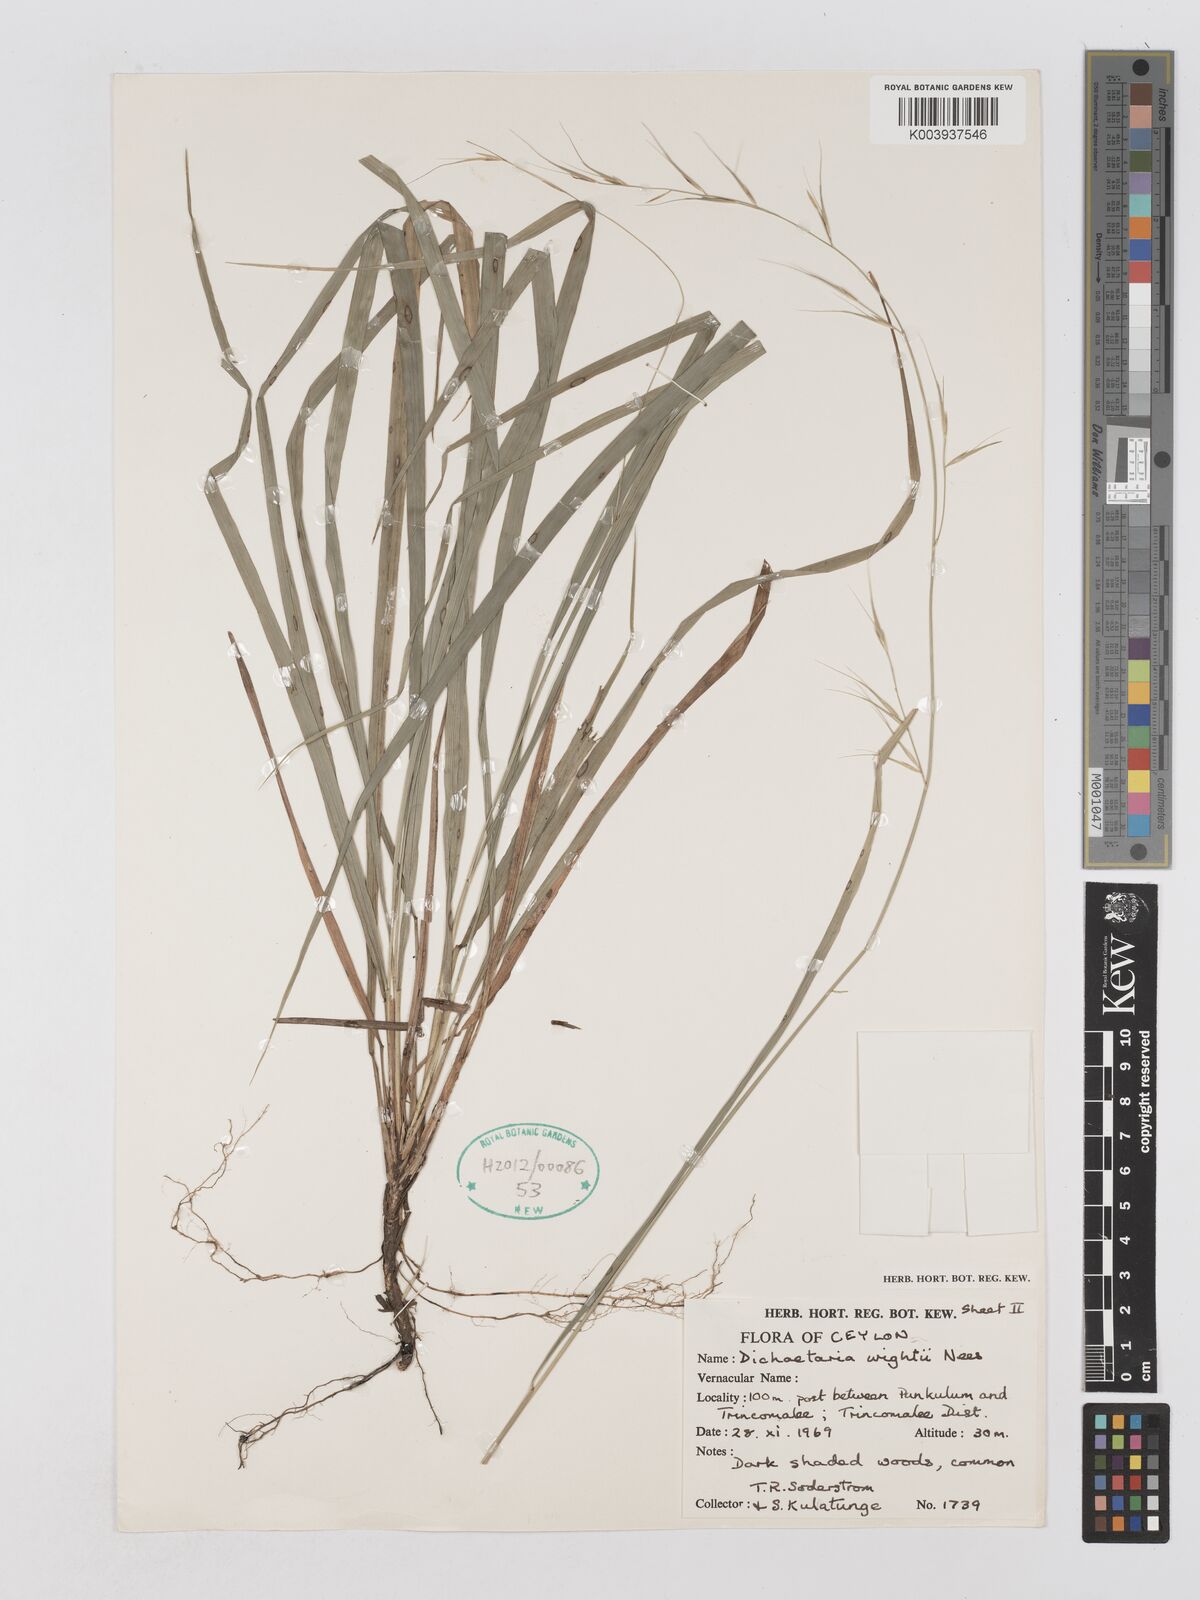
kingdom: Plantae
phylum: Tracheophyta
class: Liliopsida
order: Poales
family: Poaceae
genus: Dichaetaria
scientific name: Dichaetaria wightii
